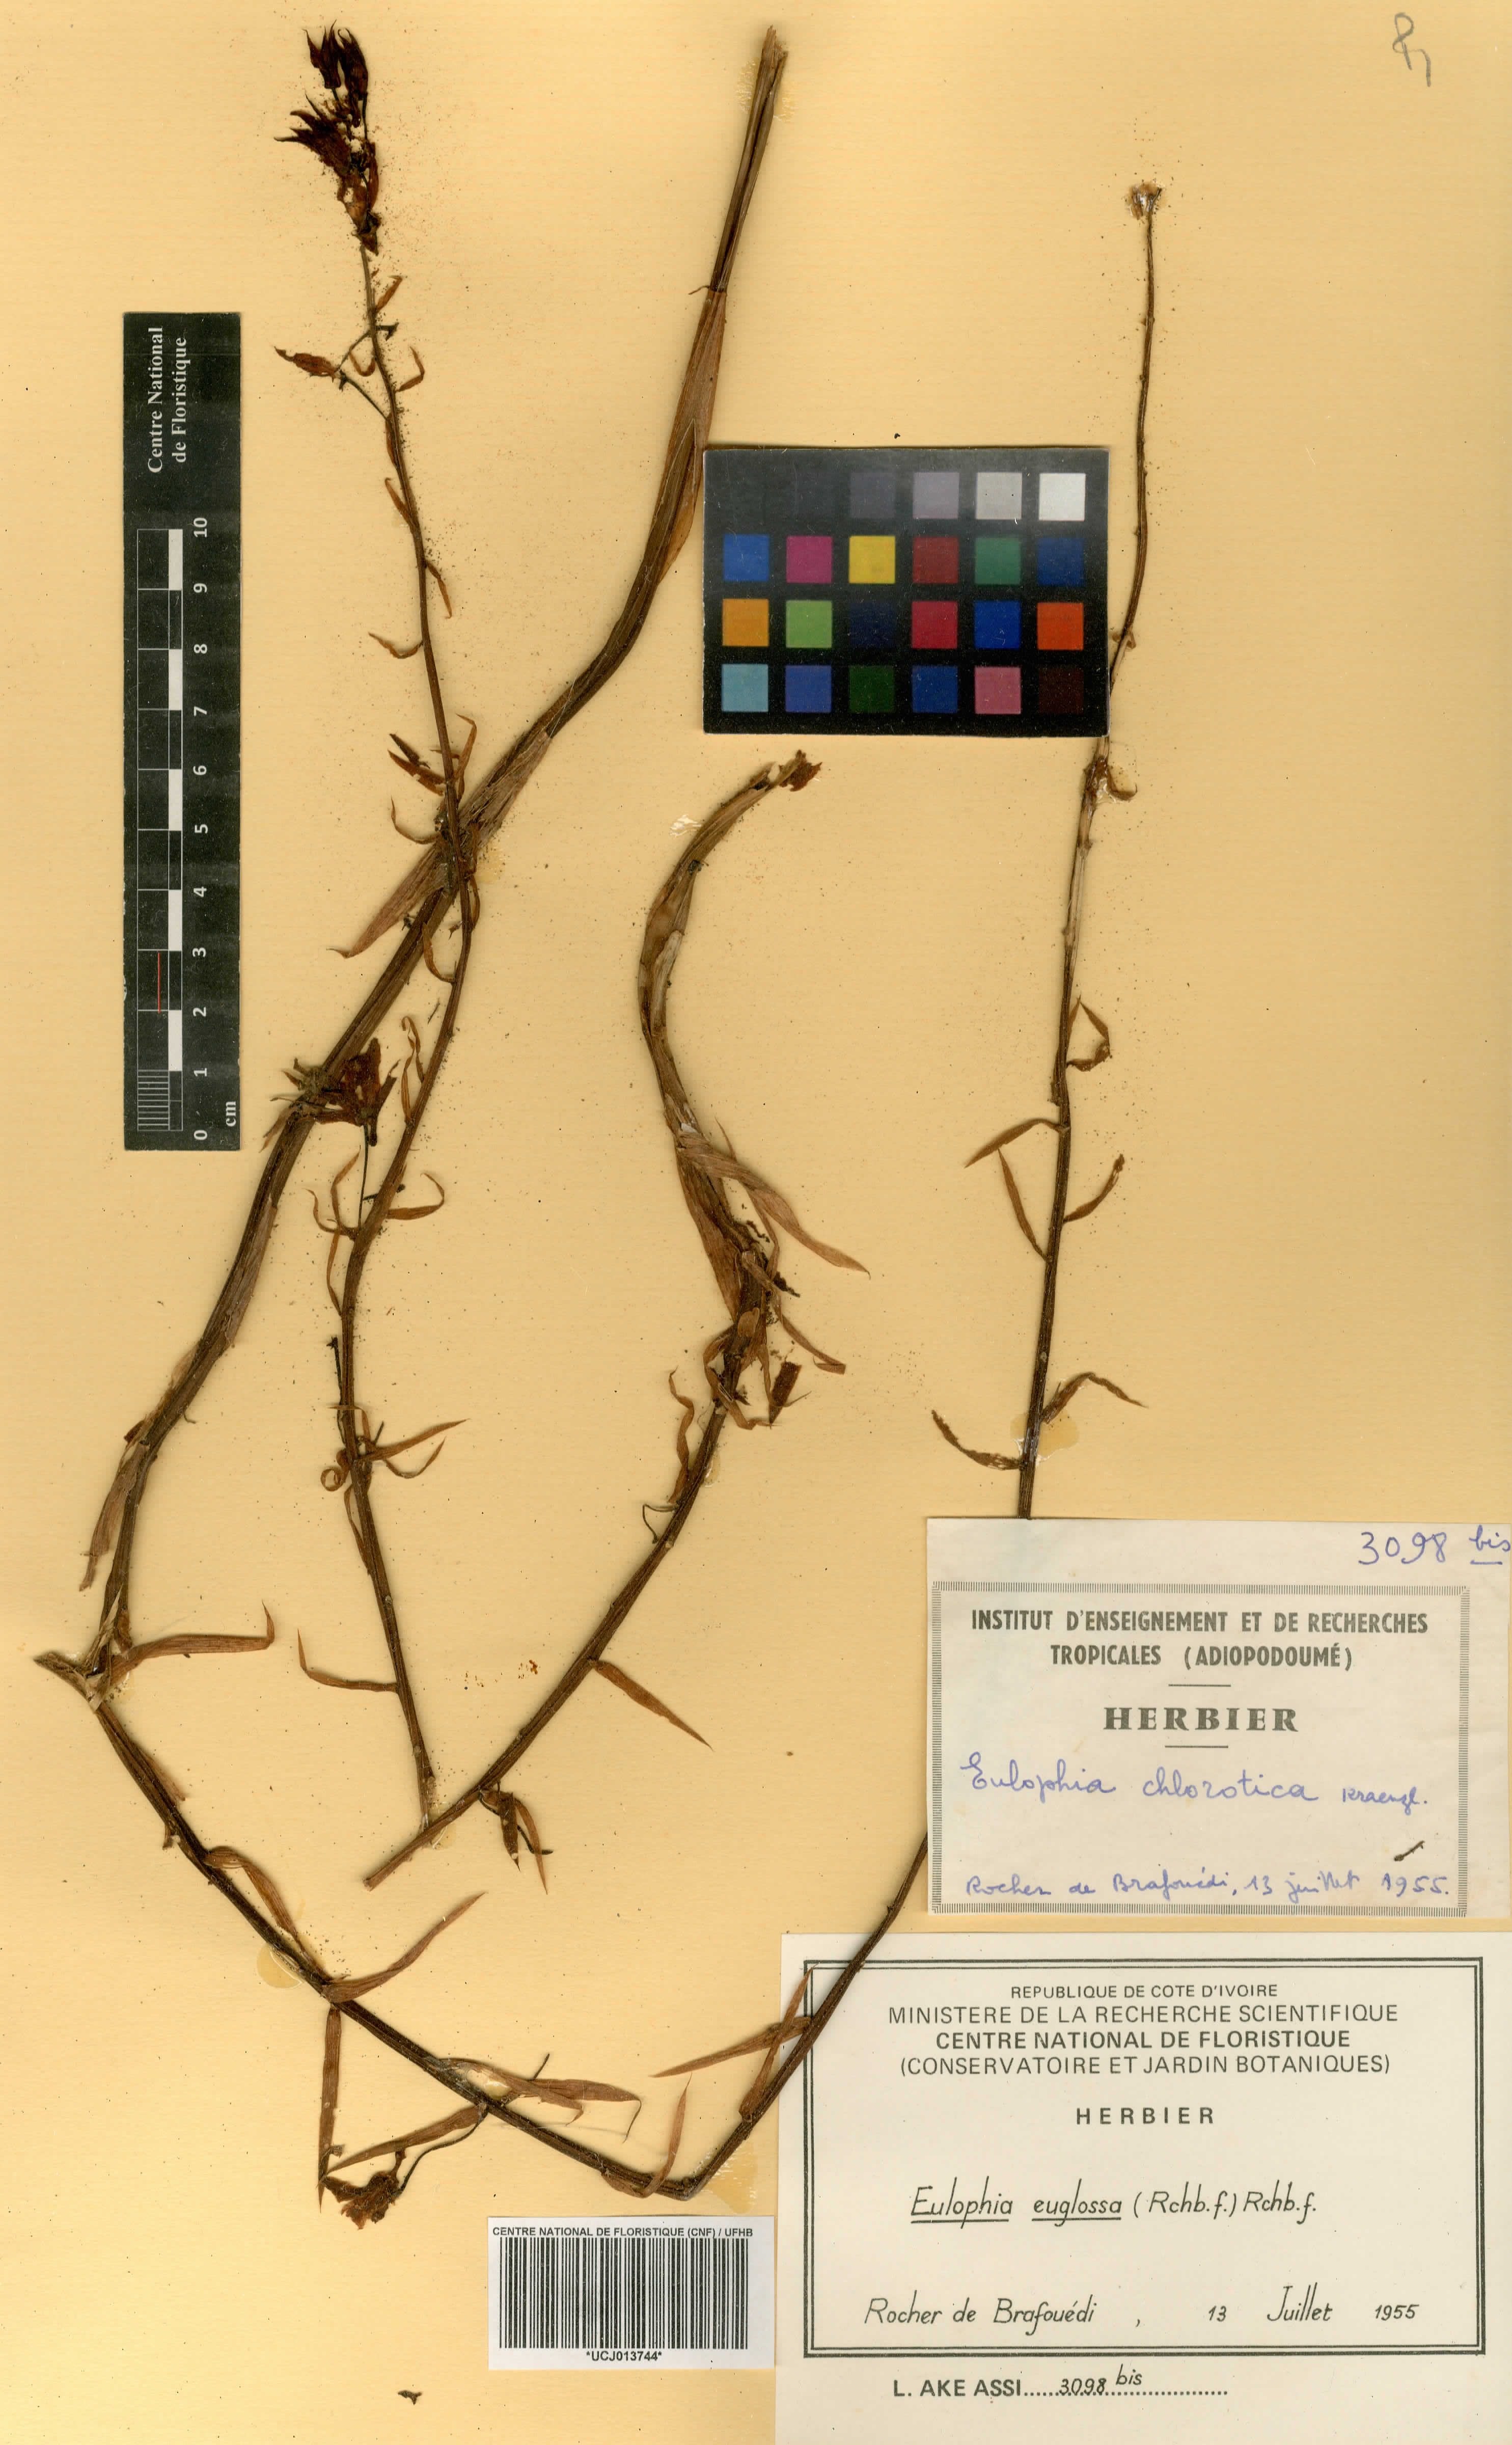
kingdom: Plantae
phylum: Tracheophyta
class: Liliopsida
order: Asparagales
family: Orchidaceae
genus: Eulophia
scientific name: Eulophia euglossa
